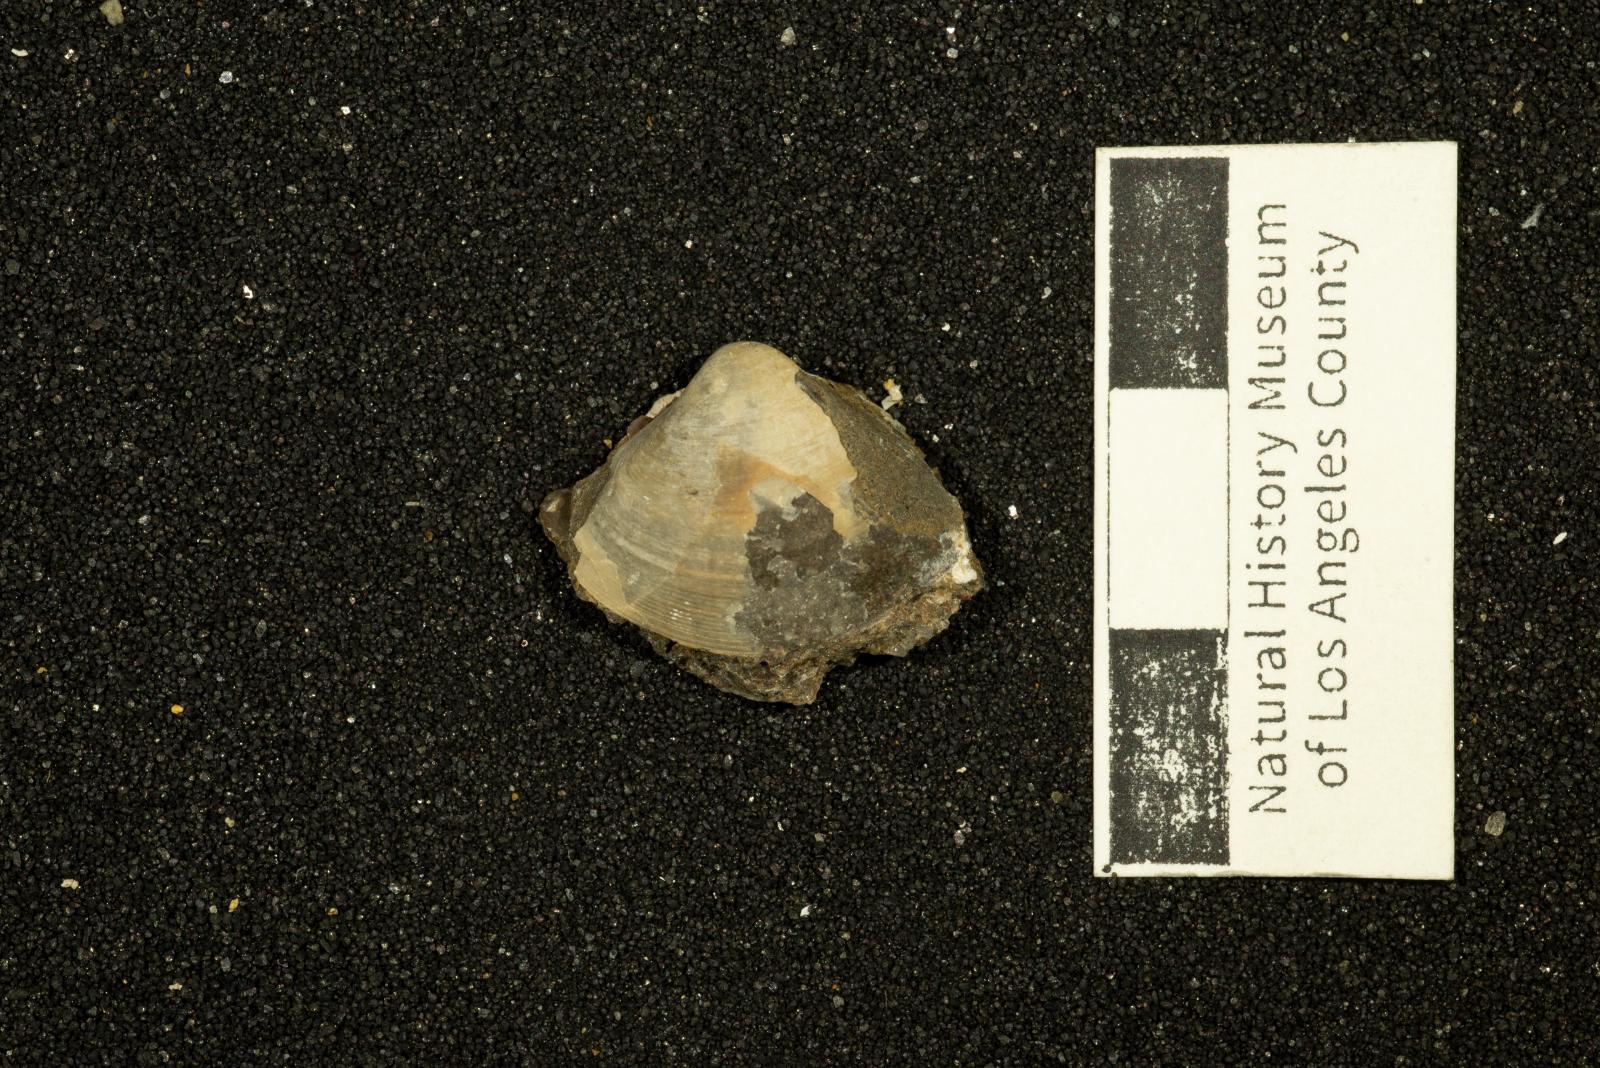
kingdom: Animalia
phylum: Mollusca
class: Bivalvia
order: Venerida
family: Mactridae
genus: Cymbophora
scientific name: Cymbophora
